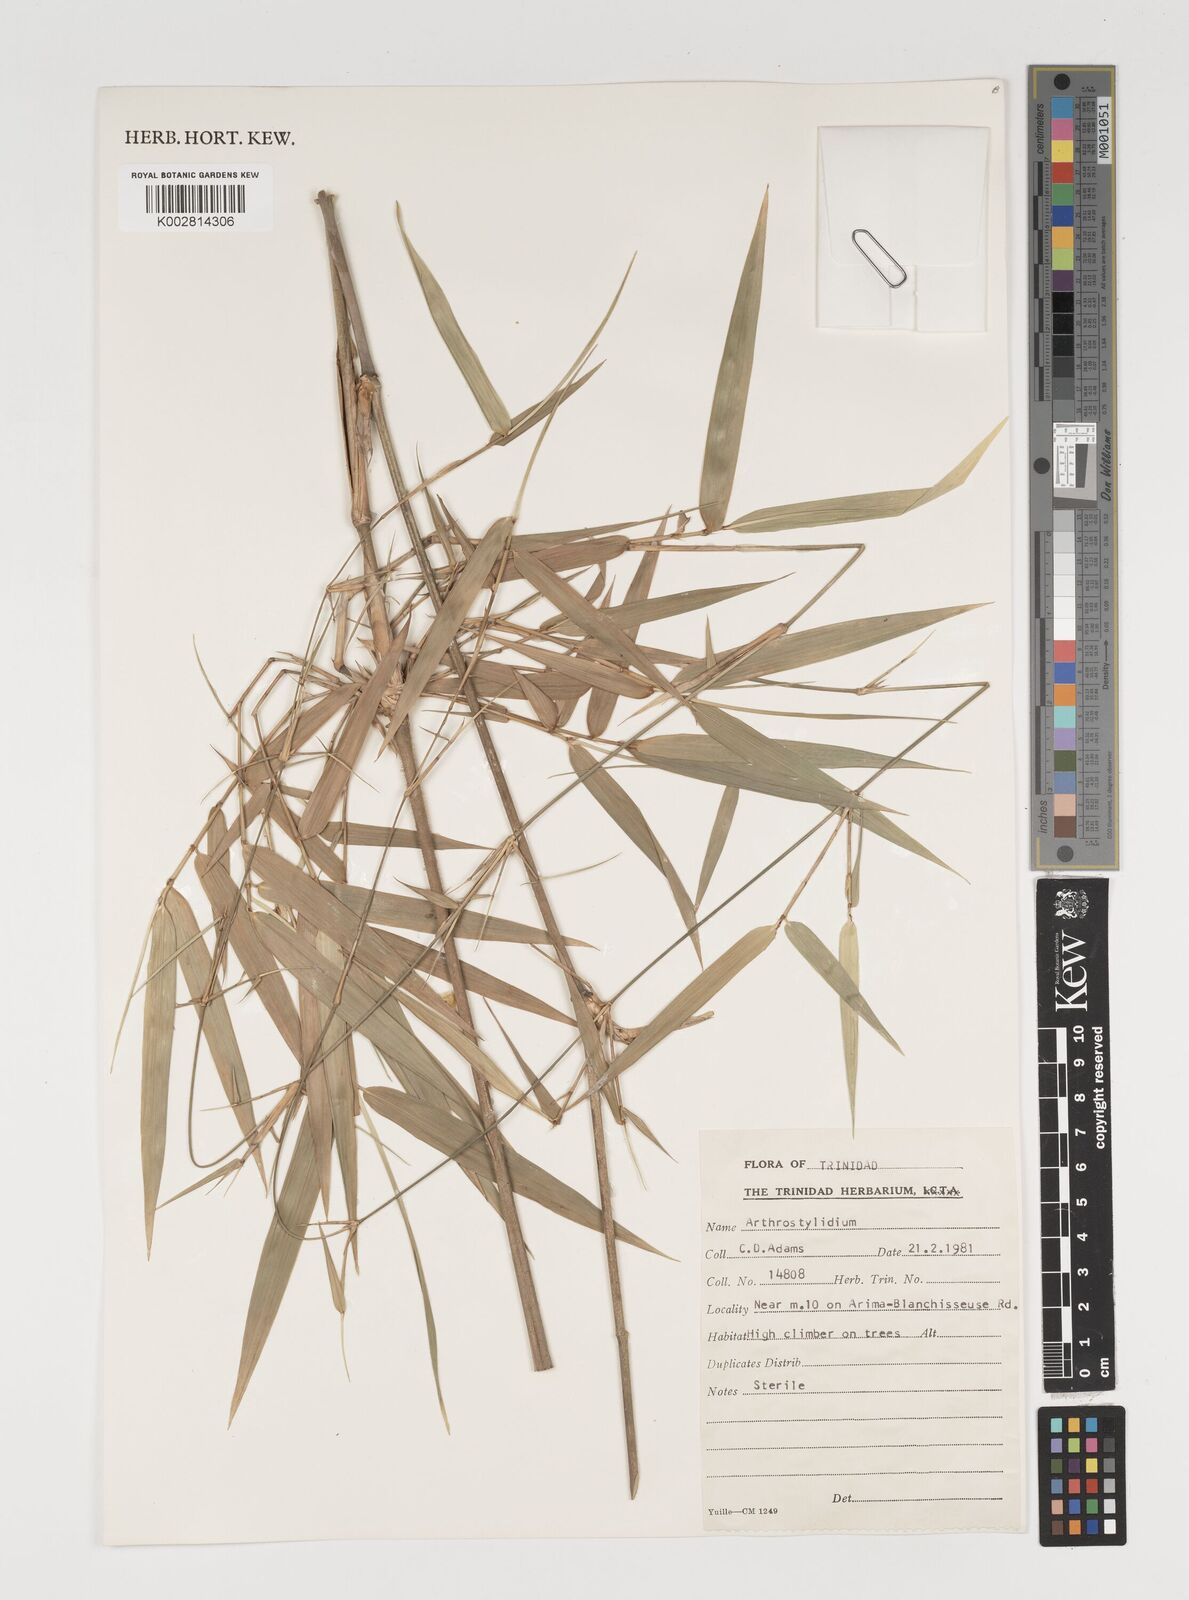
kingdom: Plantae
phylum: Tracheophyta
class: Liliopsida
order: Poales
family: Poaceae
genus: Arthrostylidium
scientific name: Arthrostylidium
